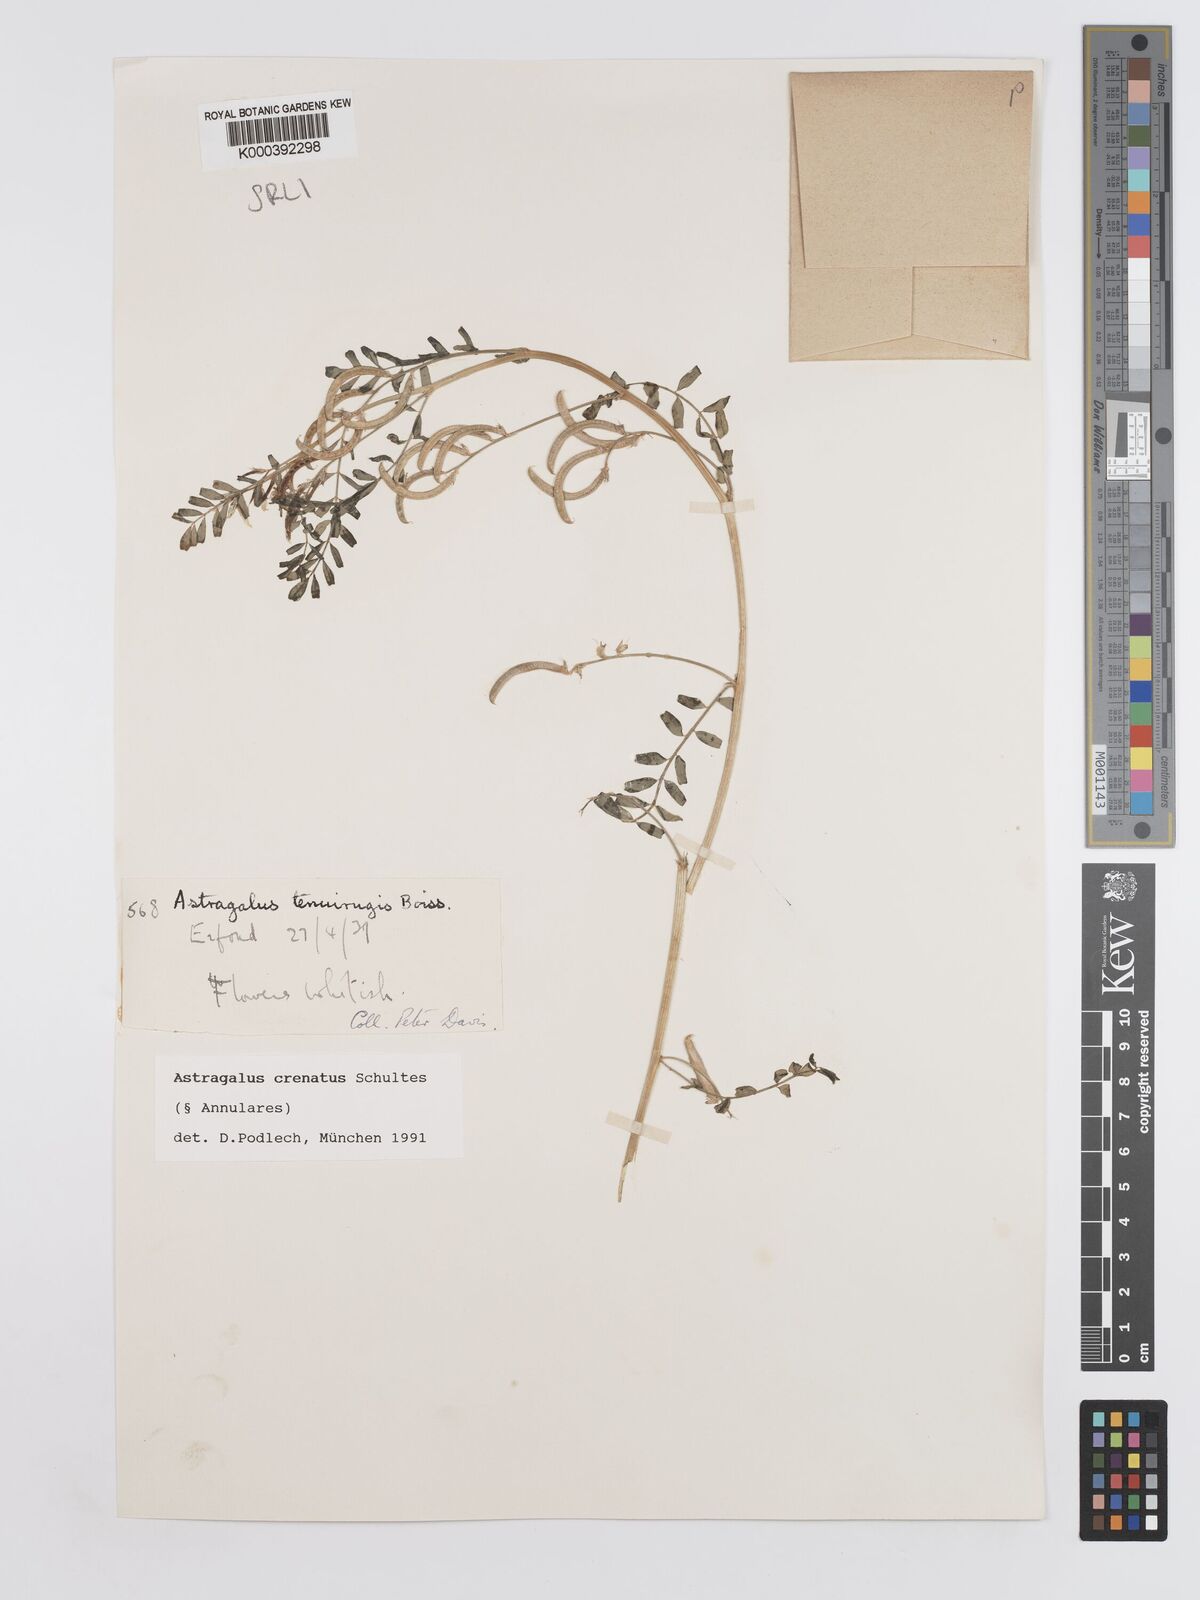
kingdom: Plantae
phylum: Tracheophyta
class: Magnoliopsida
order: Fabales
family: Fabaceae
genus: Astragalus
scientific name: Astragalus crenatus
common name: Milk vetch
